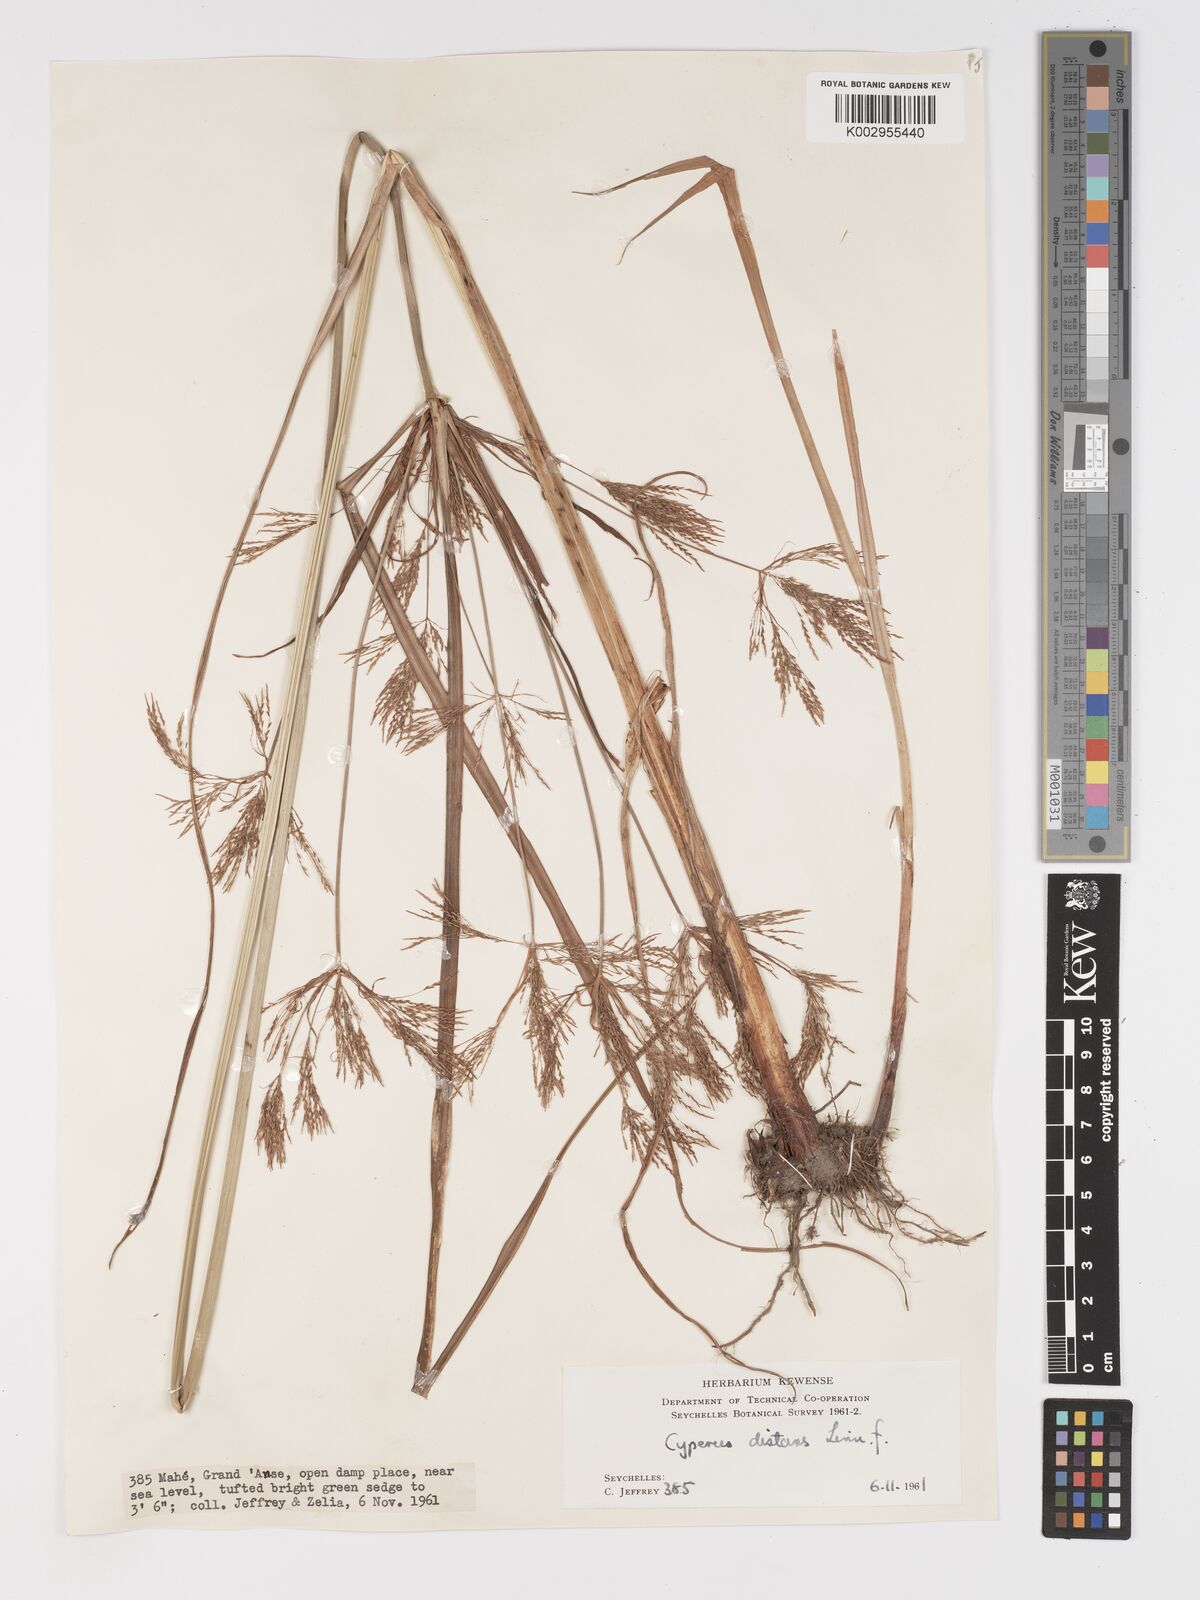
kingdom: Plantae
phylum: Tracheophyta
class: Liliopsida
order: Poales
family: Cyperaceae
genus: Cyperus
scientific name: Cyperus distans
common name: Slender cyperus
